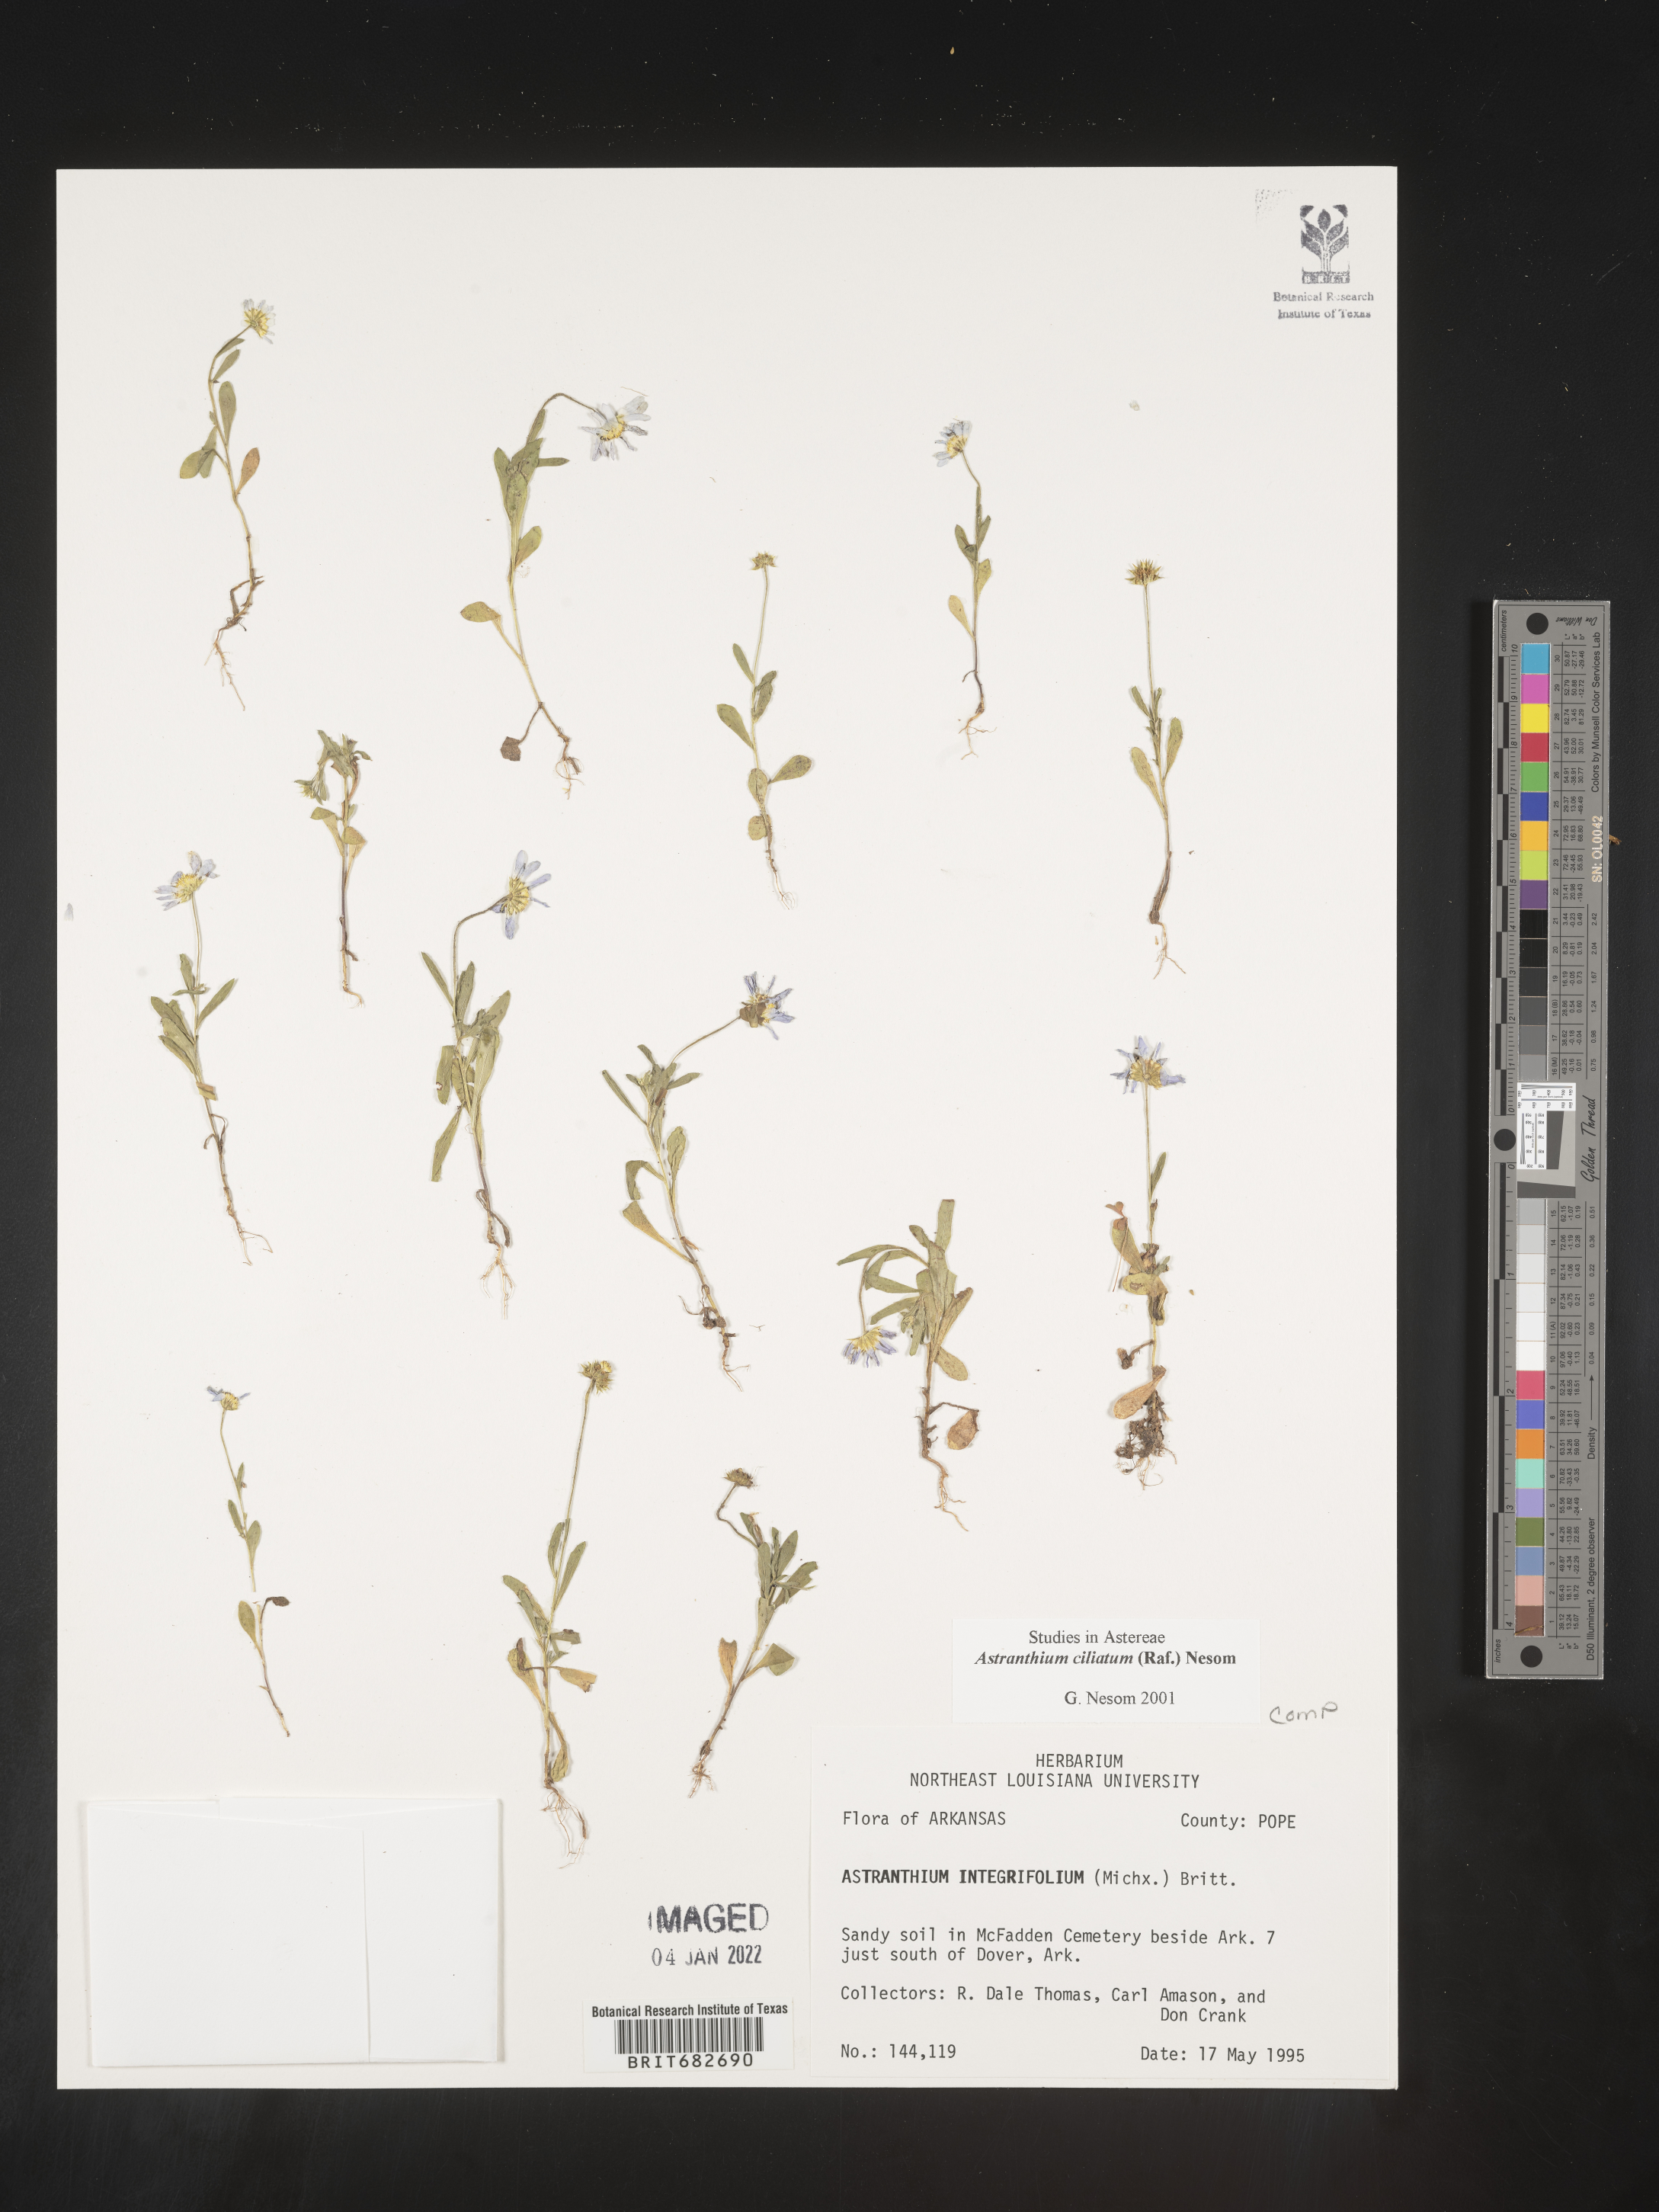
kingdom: Plantae
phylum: Tracheophyta
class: Magnoliopsida
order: Asterales
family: Asteraceae
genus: Astranthium
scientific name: Astranthium ciliatum
